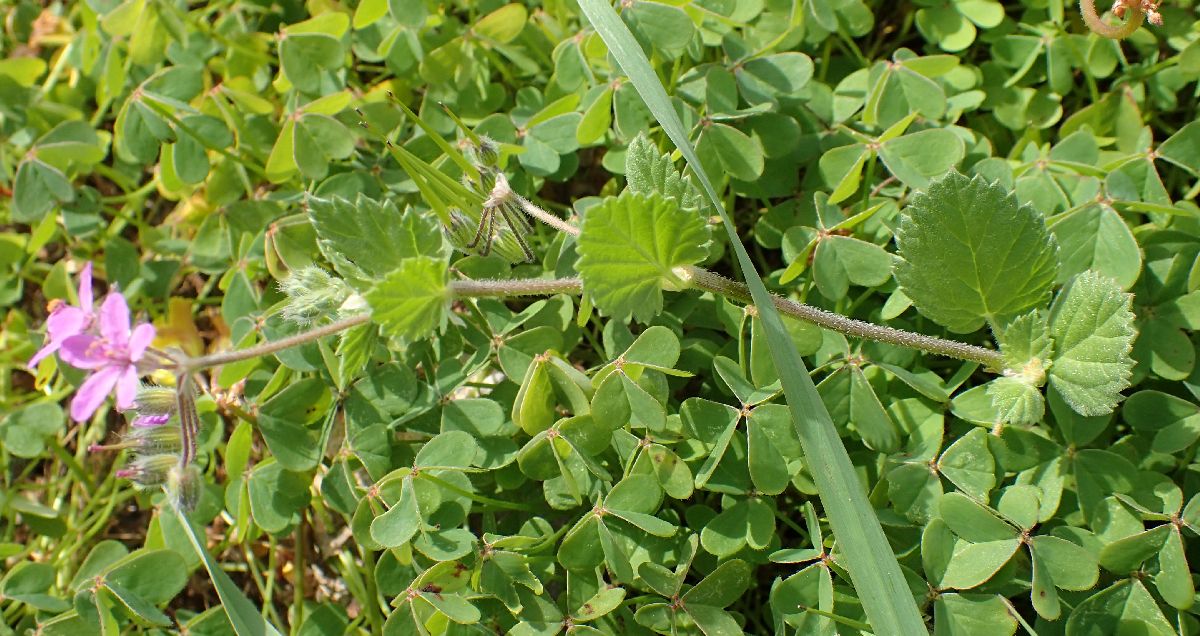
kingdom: Plantae
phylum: Tracheophyta
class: Magnoliopsida
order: Geraniales
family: Geraniaceae
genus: Erodium
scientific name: Erodium malacoides
